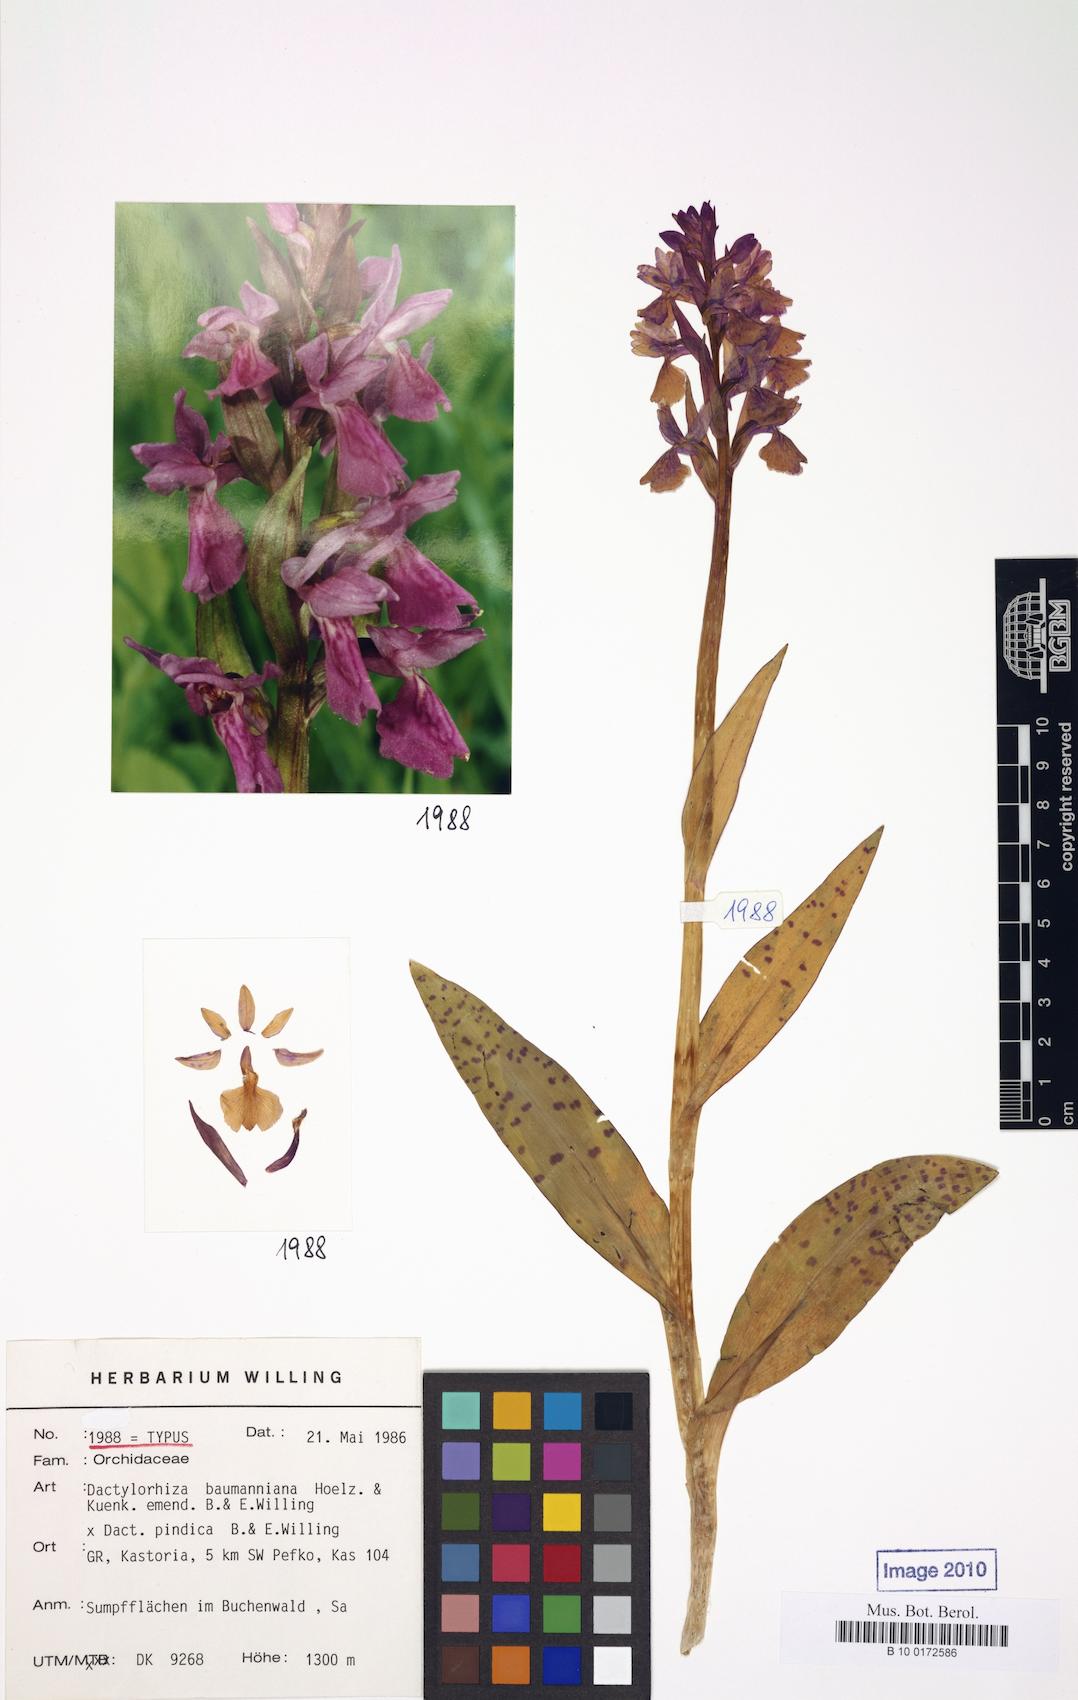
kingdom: Plantae
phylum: Tracheophyta
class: Liliopsida
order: Asparagales
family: Orchidaceae
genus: Dactylorhiza
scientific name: Dactylorhiza
